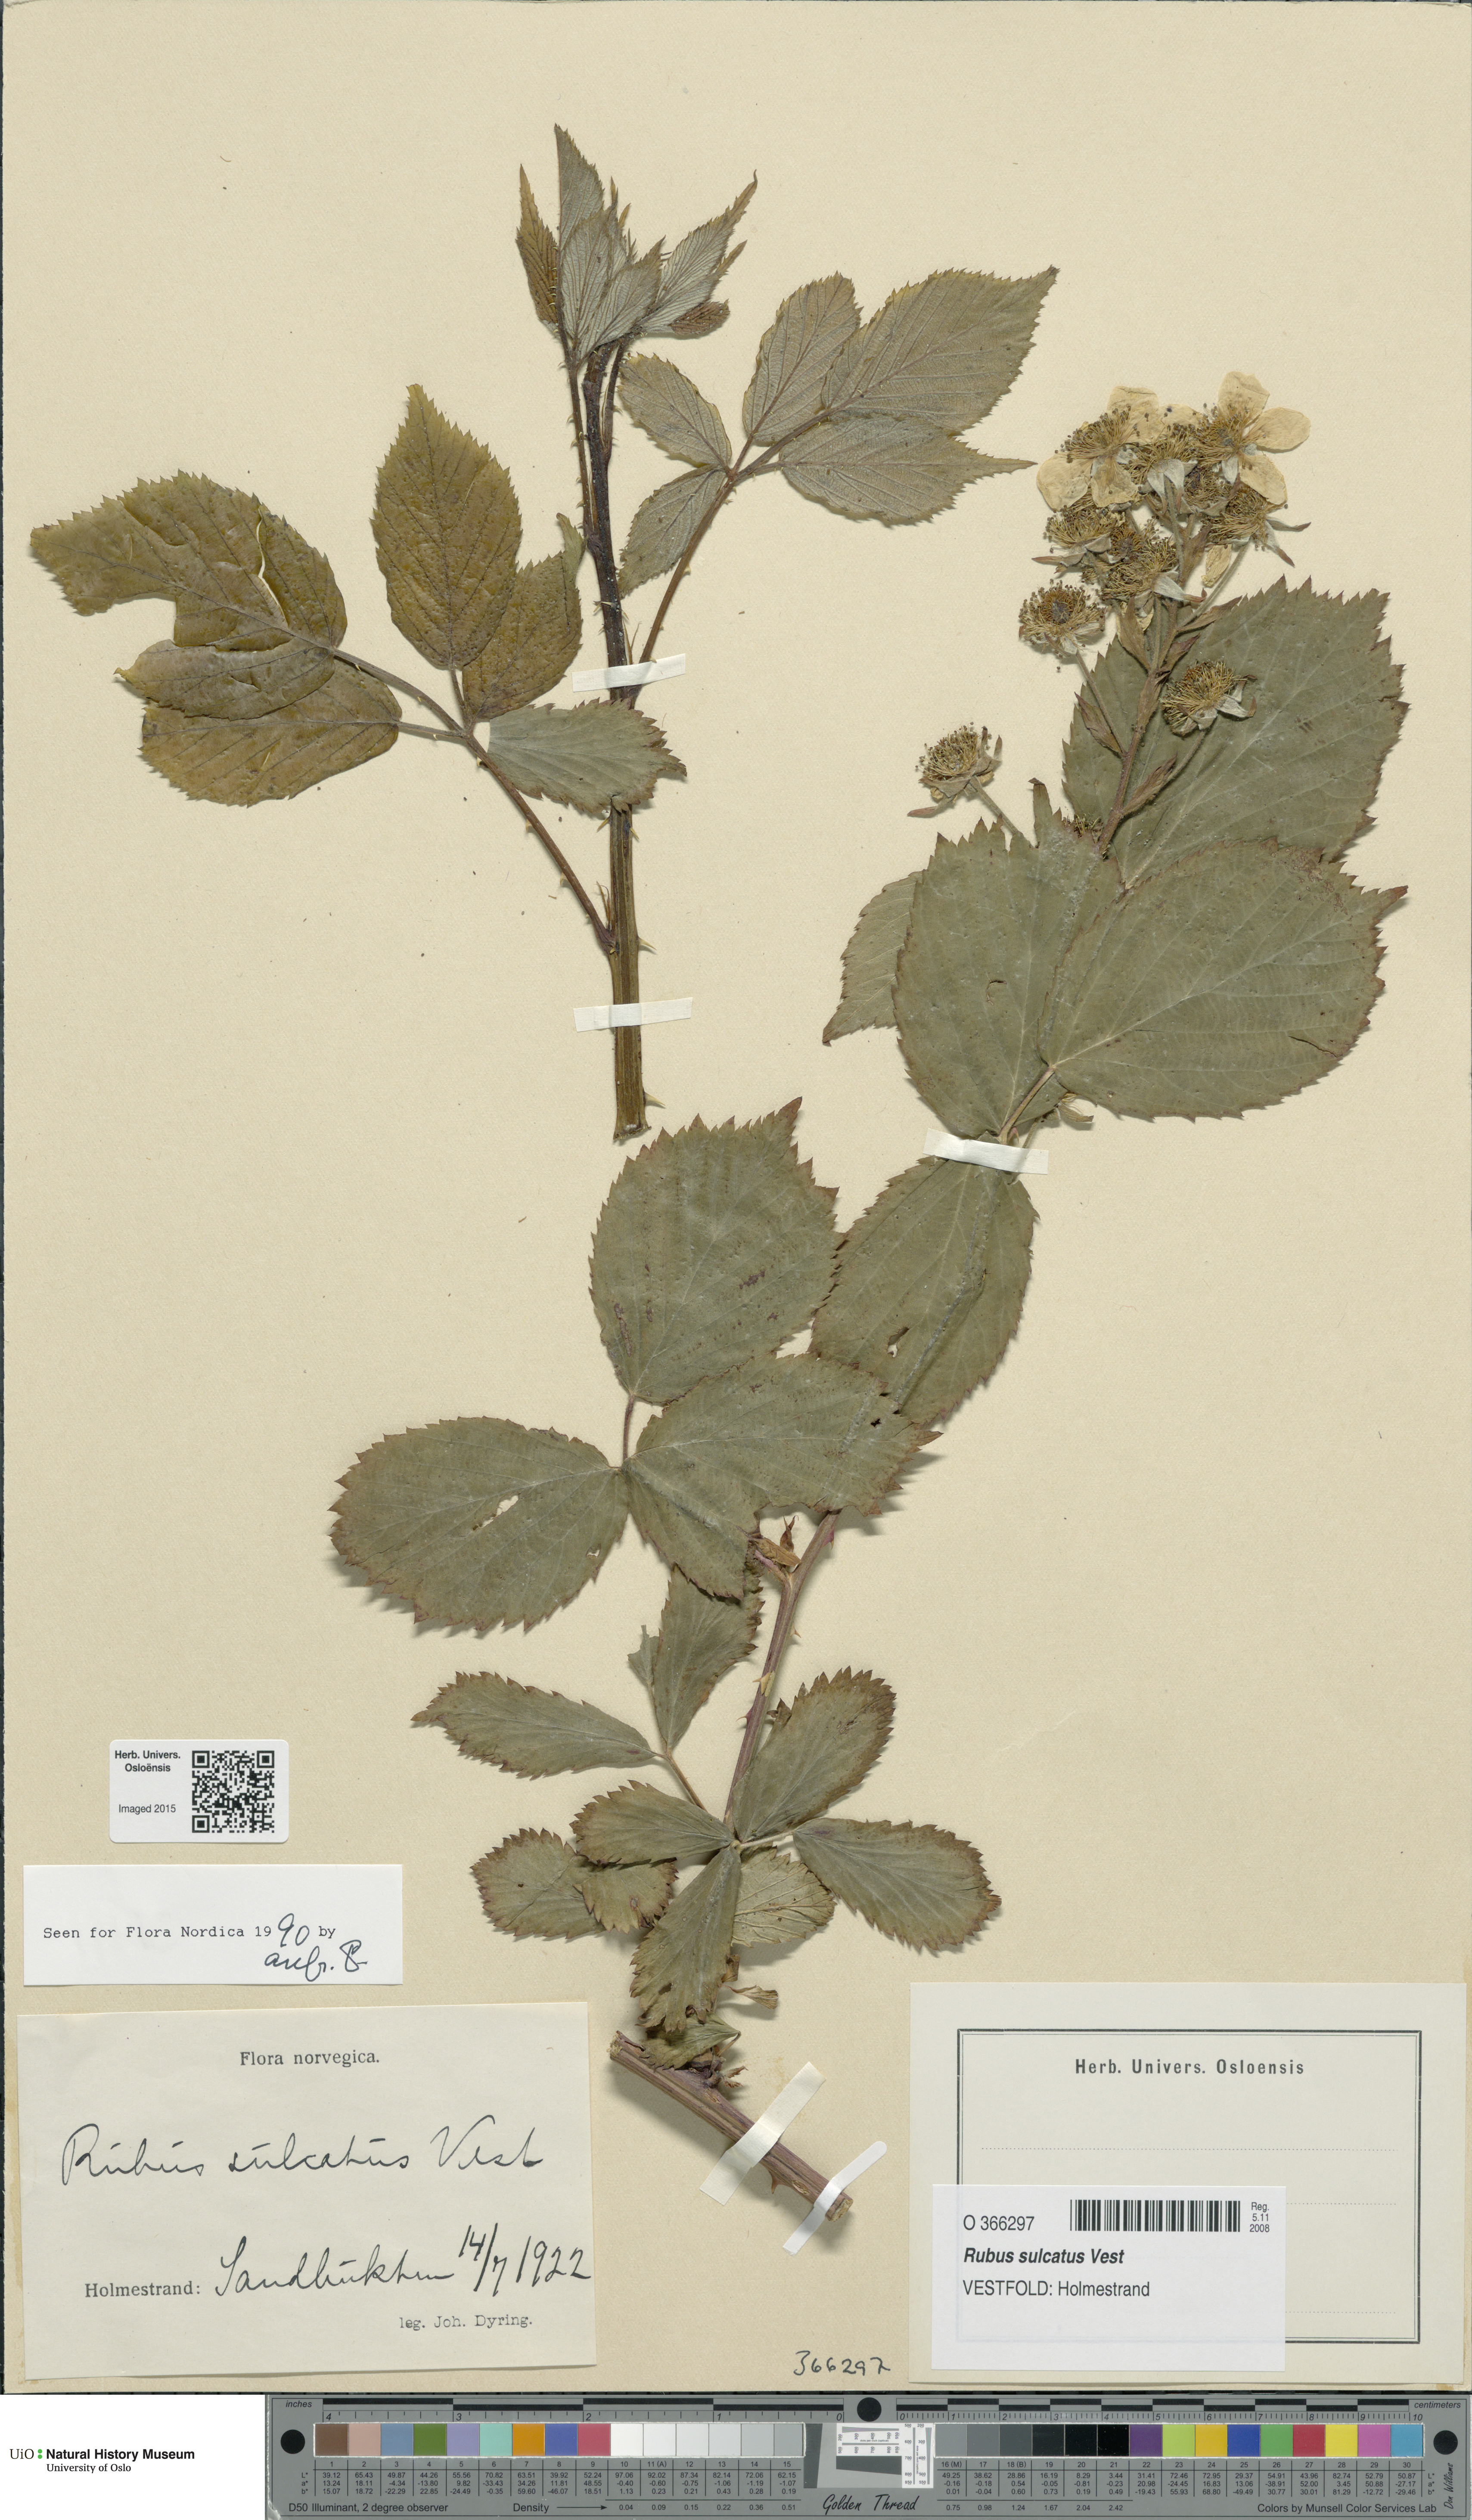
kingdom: Plantae
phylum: Tracheophyta
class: Magnoliopsida
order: Rosales
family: Rosaceae
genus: Rubus
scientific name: Rubus sulcatus
